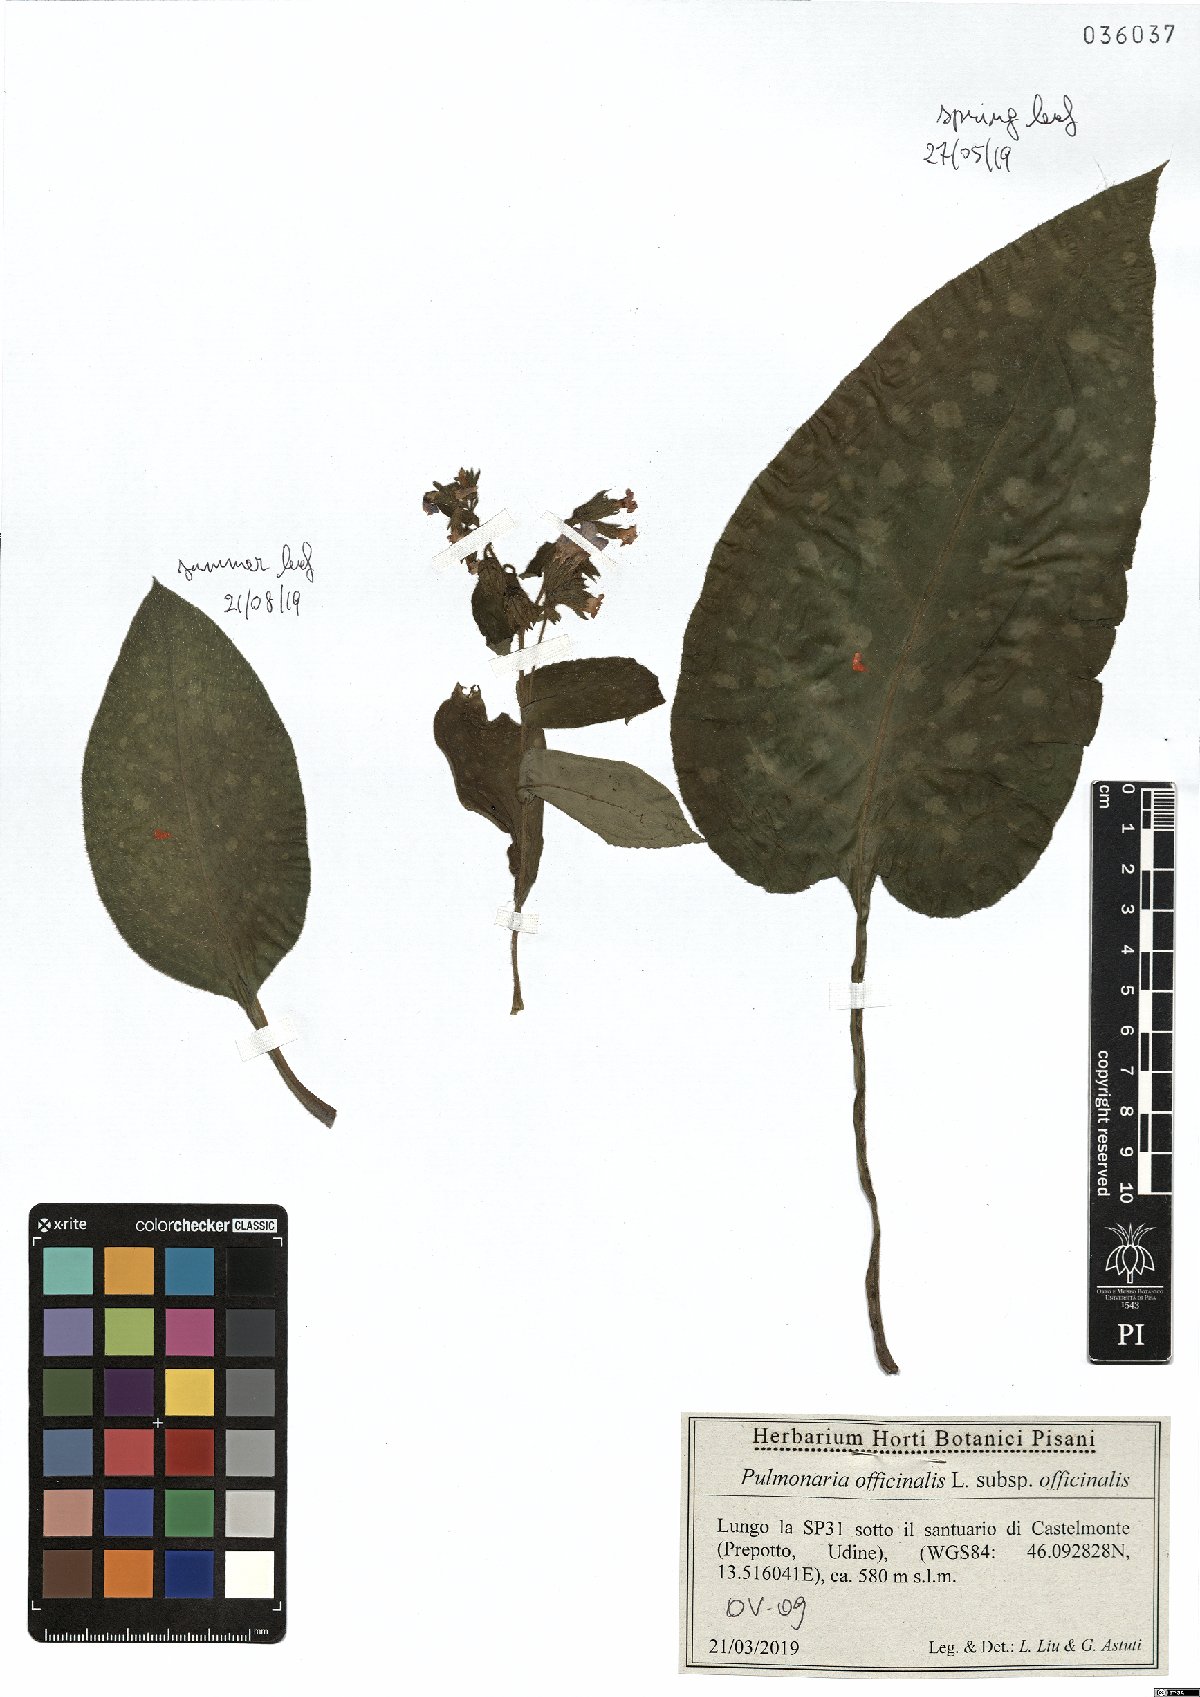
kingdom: Plantae
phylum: Tracheophyta
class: Magnoliopsida
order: Boraginales
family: Boraginaceae
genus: Pulmonaria
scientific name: Pulmonaria officinalis
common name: Lungwort
